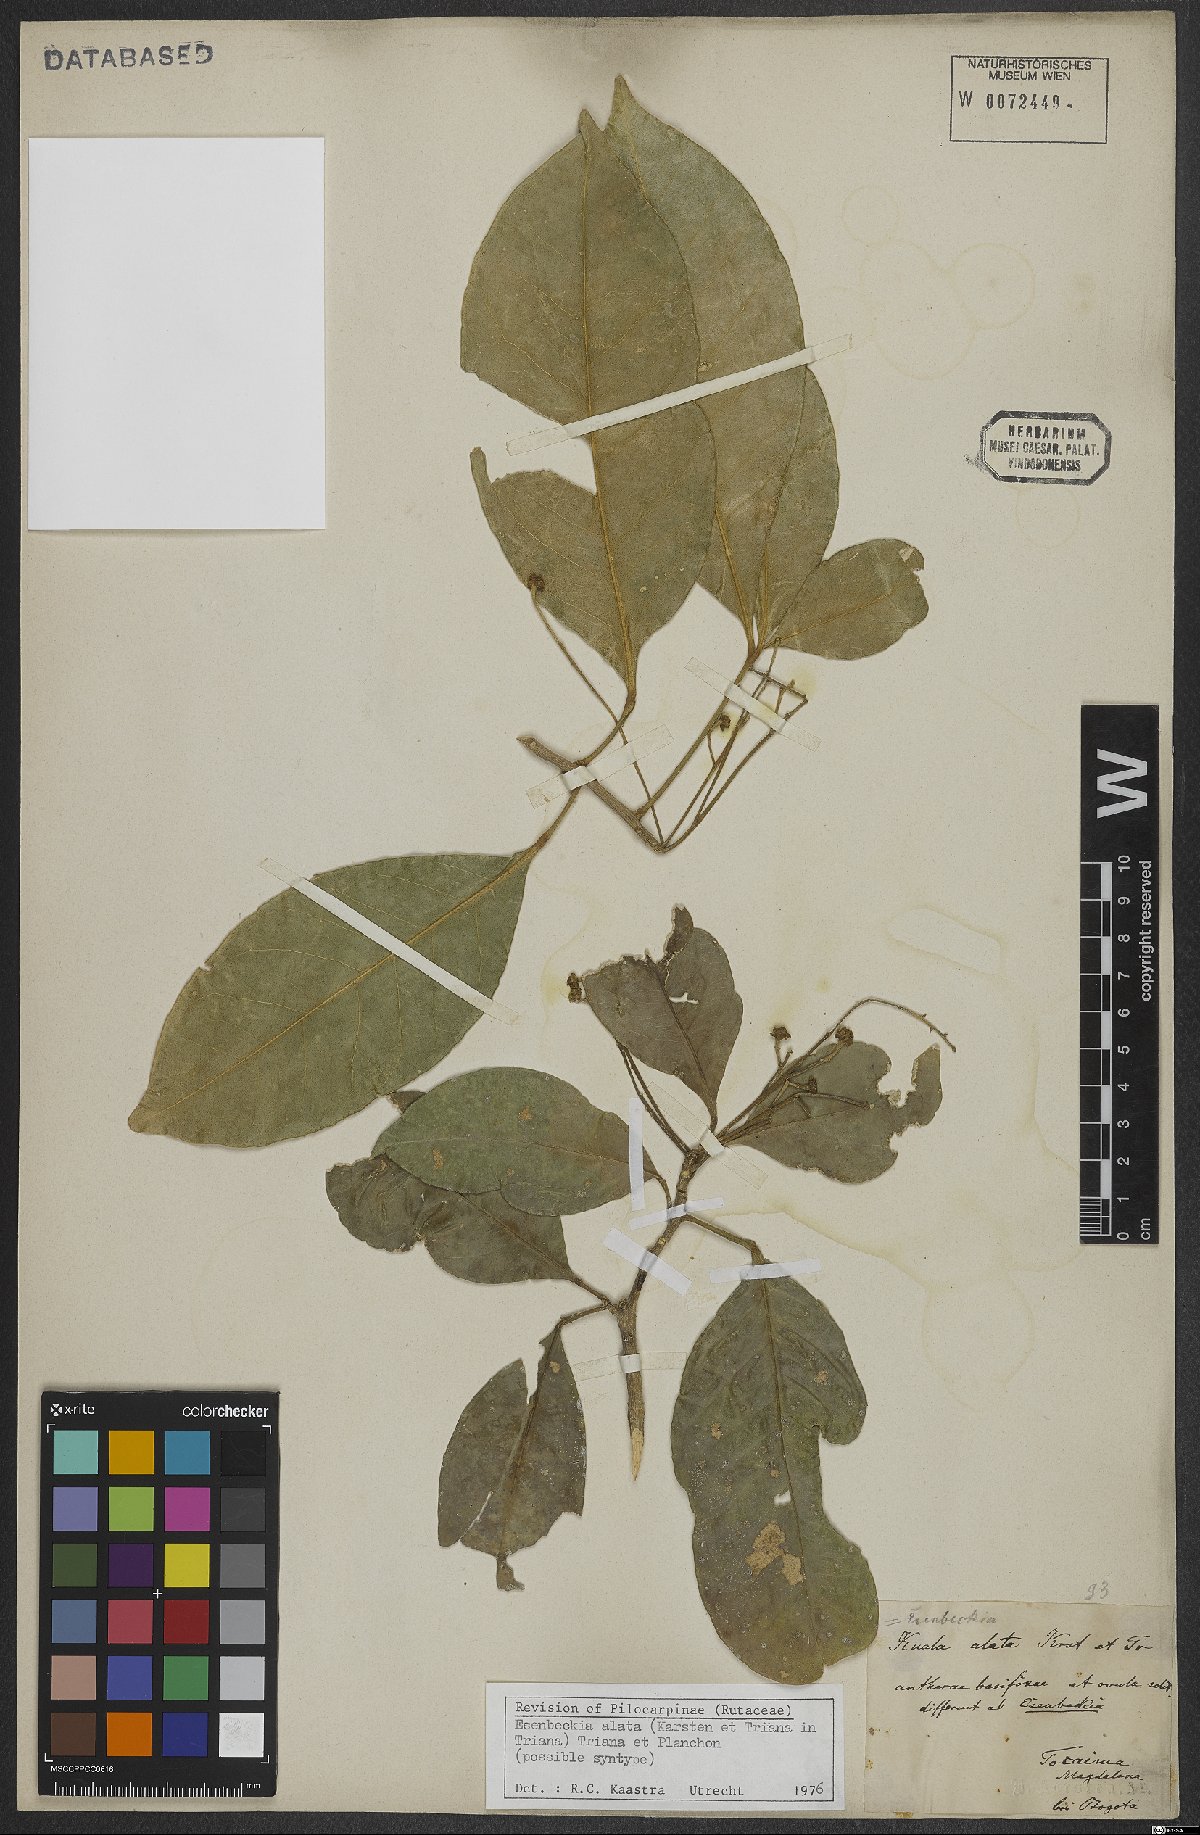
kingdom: Plantae
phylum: Tracheophyta
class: Magnoliopsida
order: Sapindales
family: Rutaceae
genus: Esenbeckia
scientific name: Esenbeckia alata
